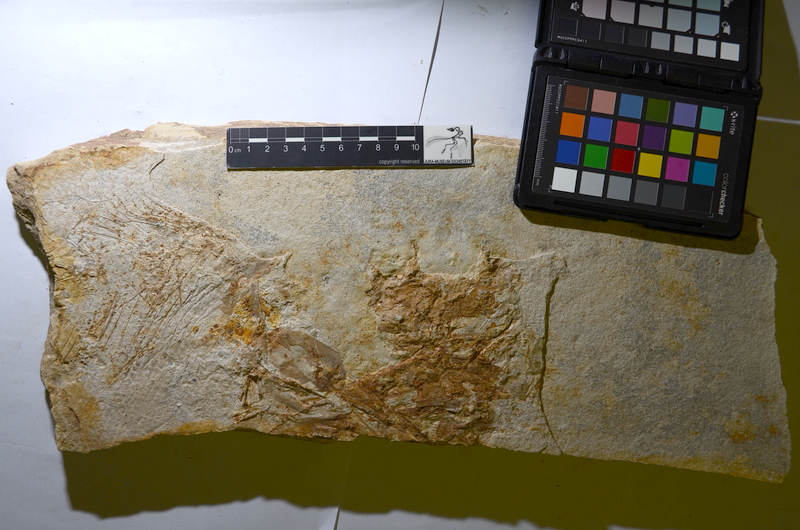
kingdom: Animalia
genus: Piscis
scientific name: Piscis
